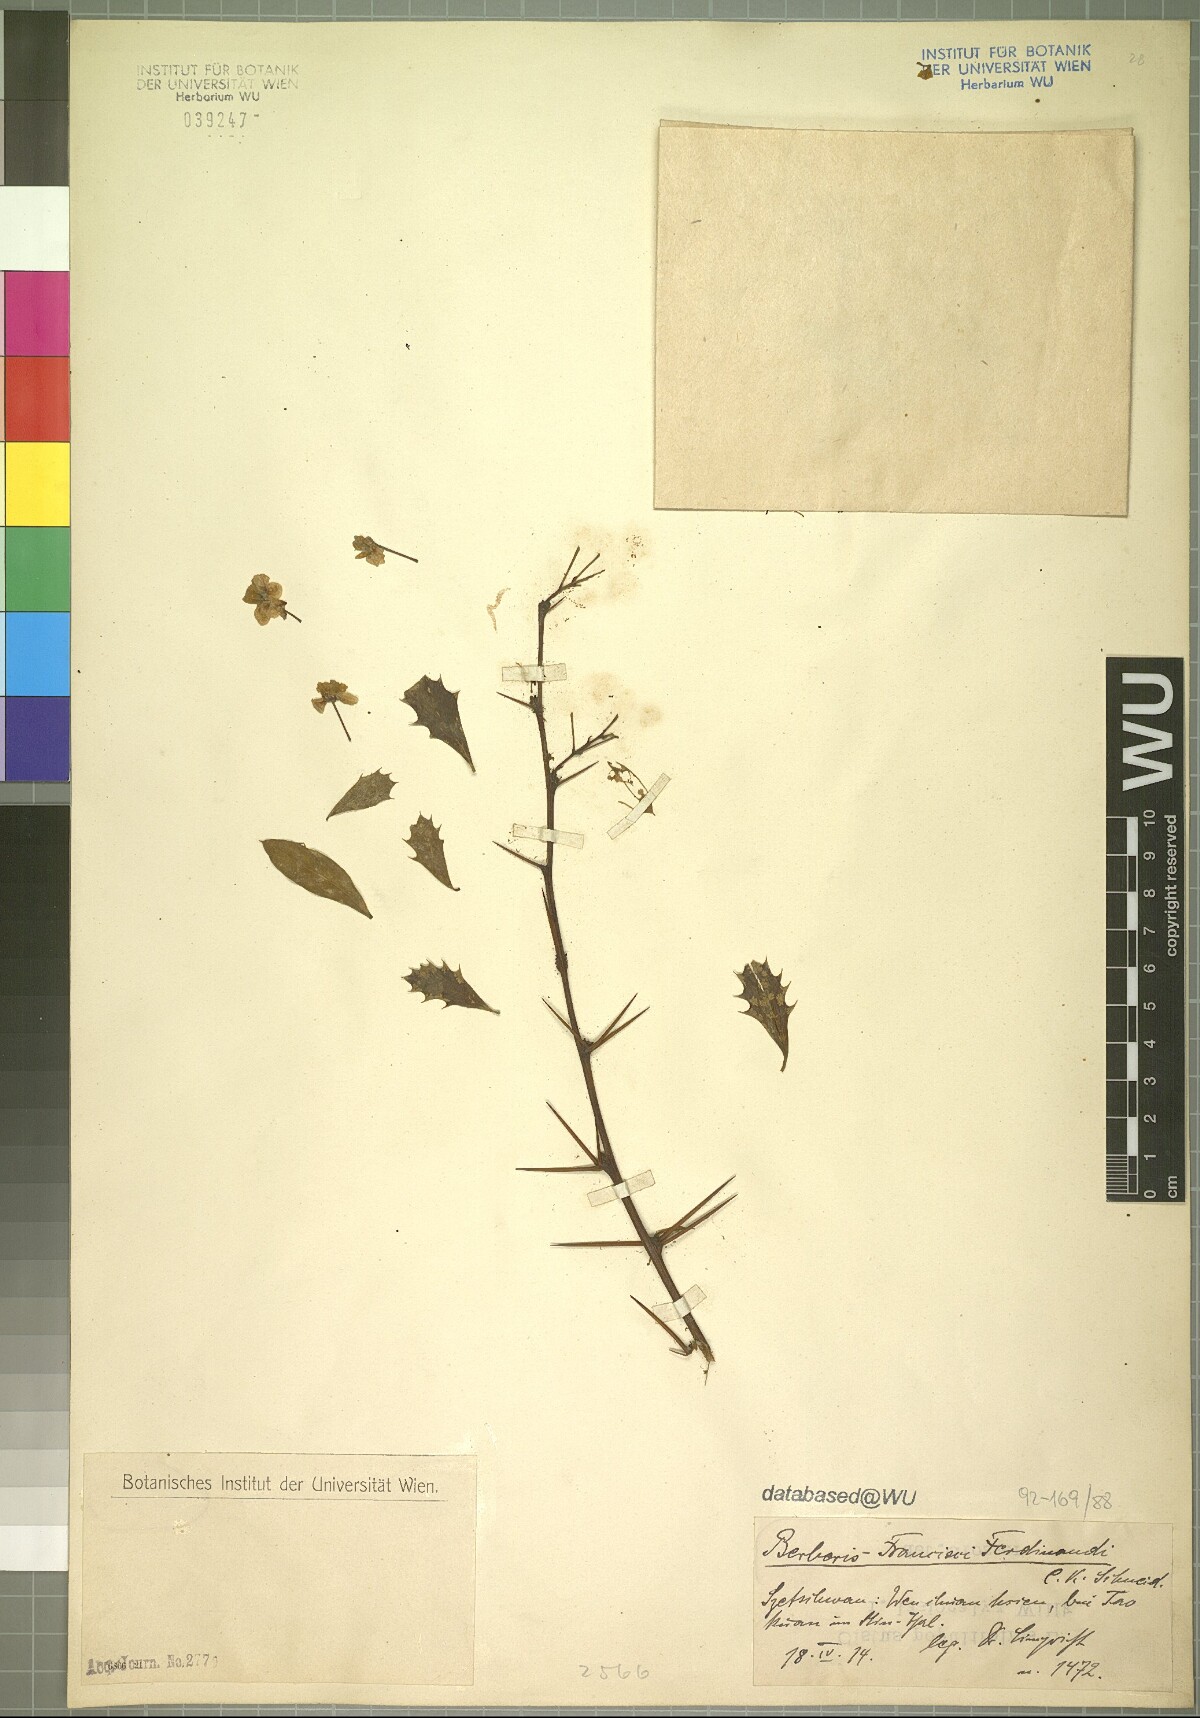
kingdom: Plantae
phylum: Tracheophyta
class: Magnoliopsida
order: Ranunculales
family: Berberidaceae
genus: Berberis
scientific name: Berberis francisci-ferdinandi
